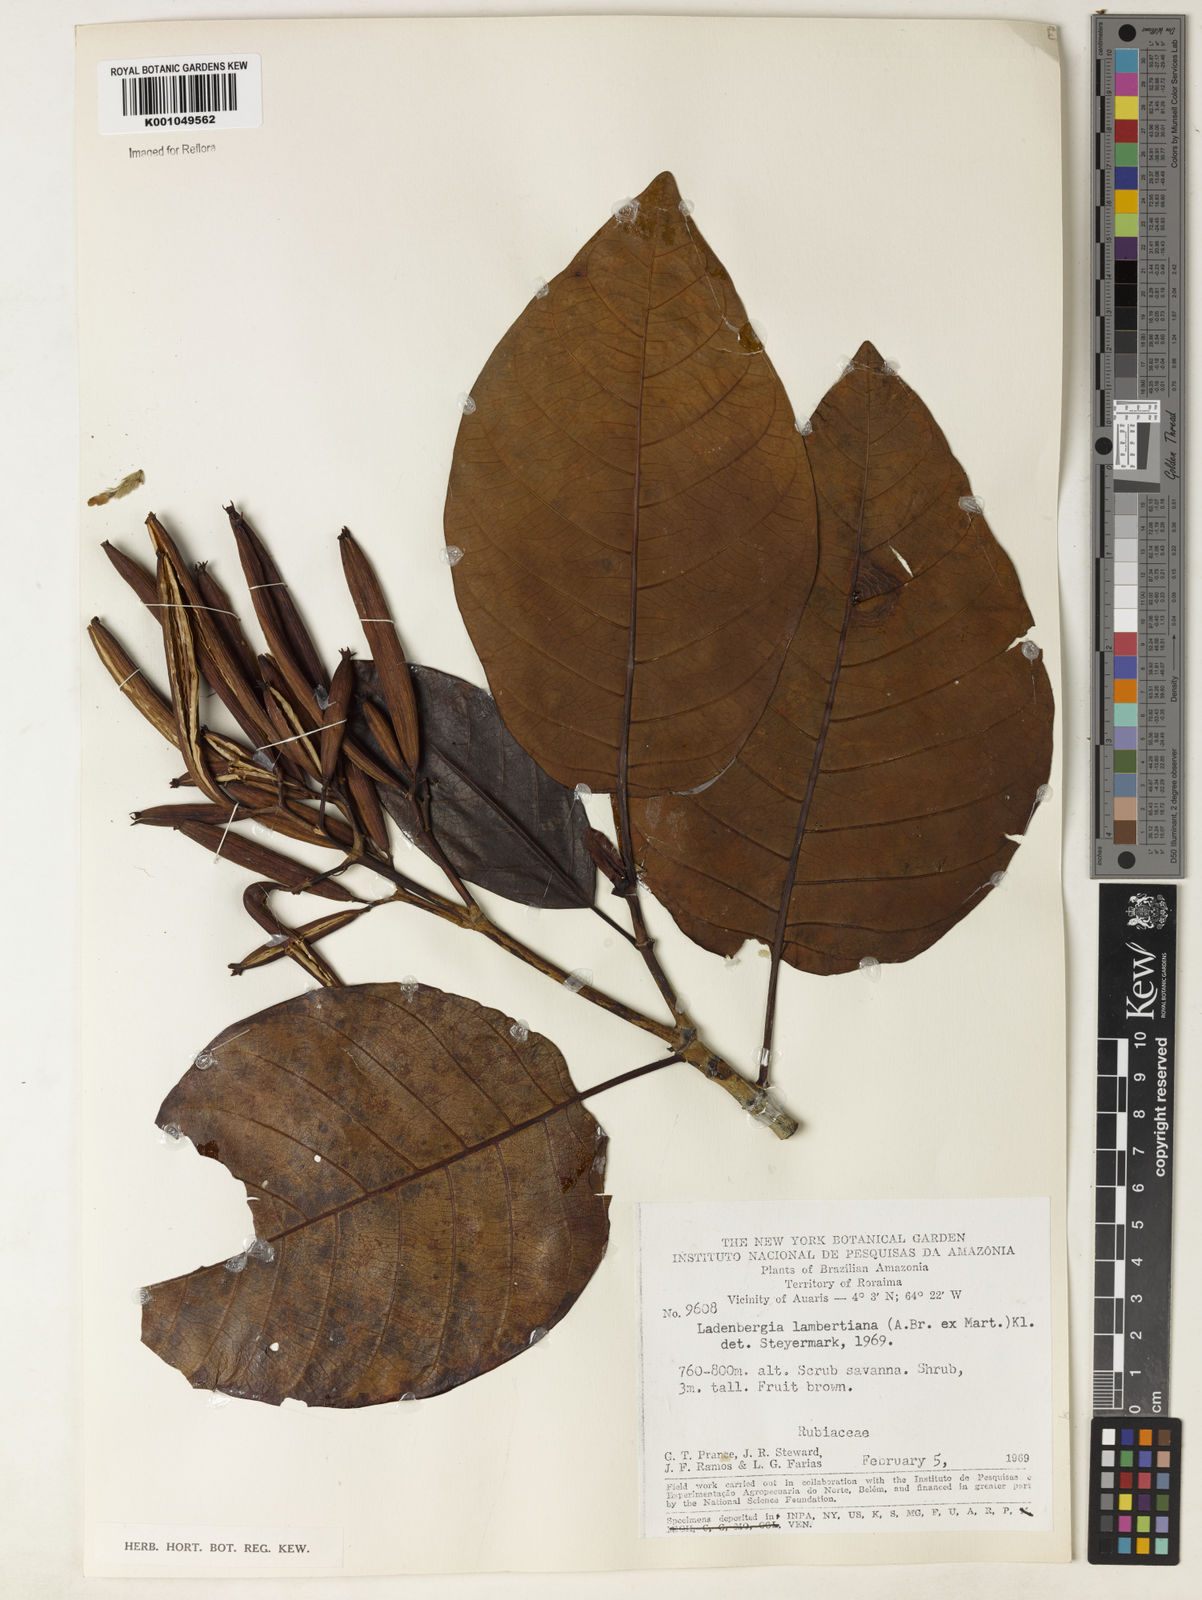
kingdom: Plantae
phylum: Tracheophyta
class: Magnoliopsida
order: Gentianales
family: Rubiaceae
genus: Ladenbergia
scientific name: Ladenbergia lambertiana
